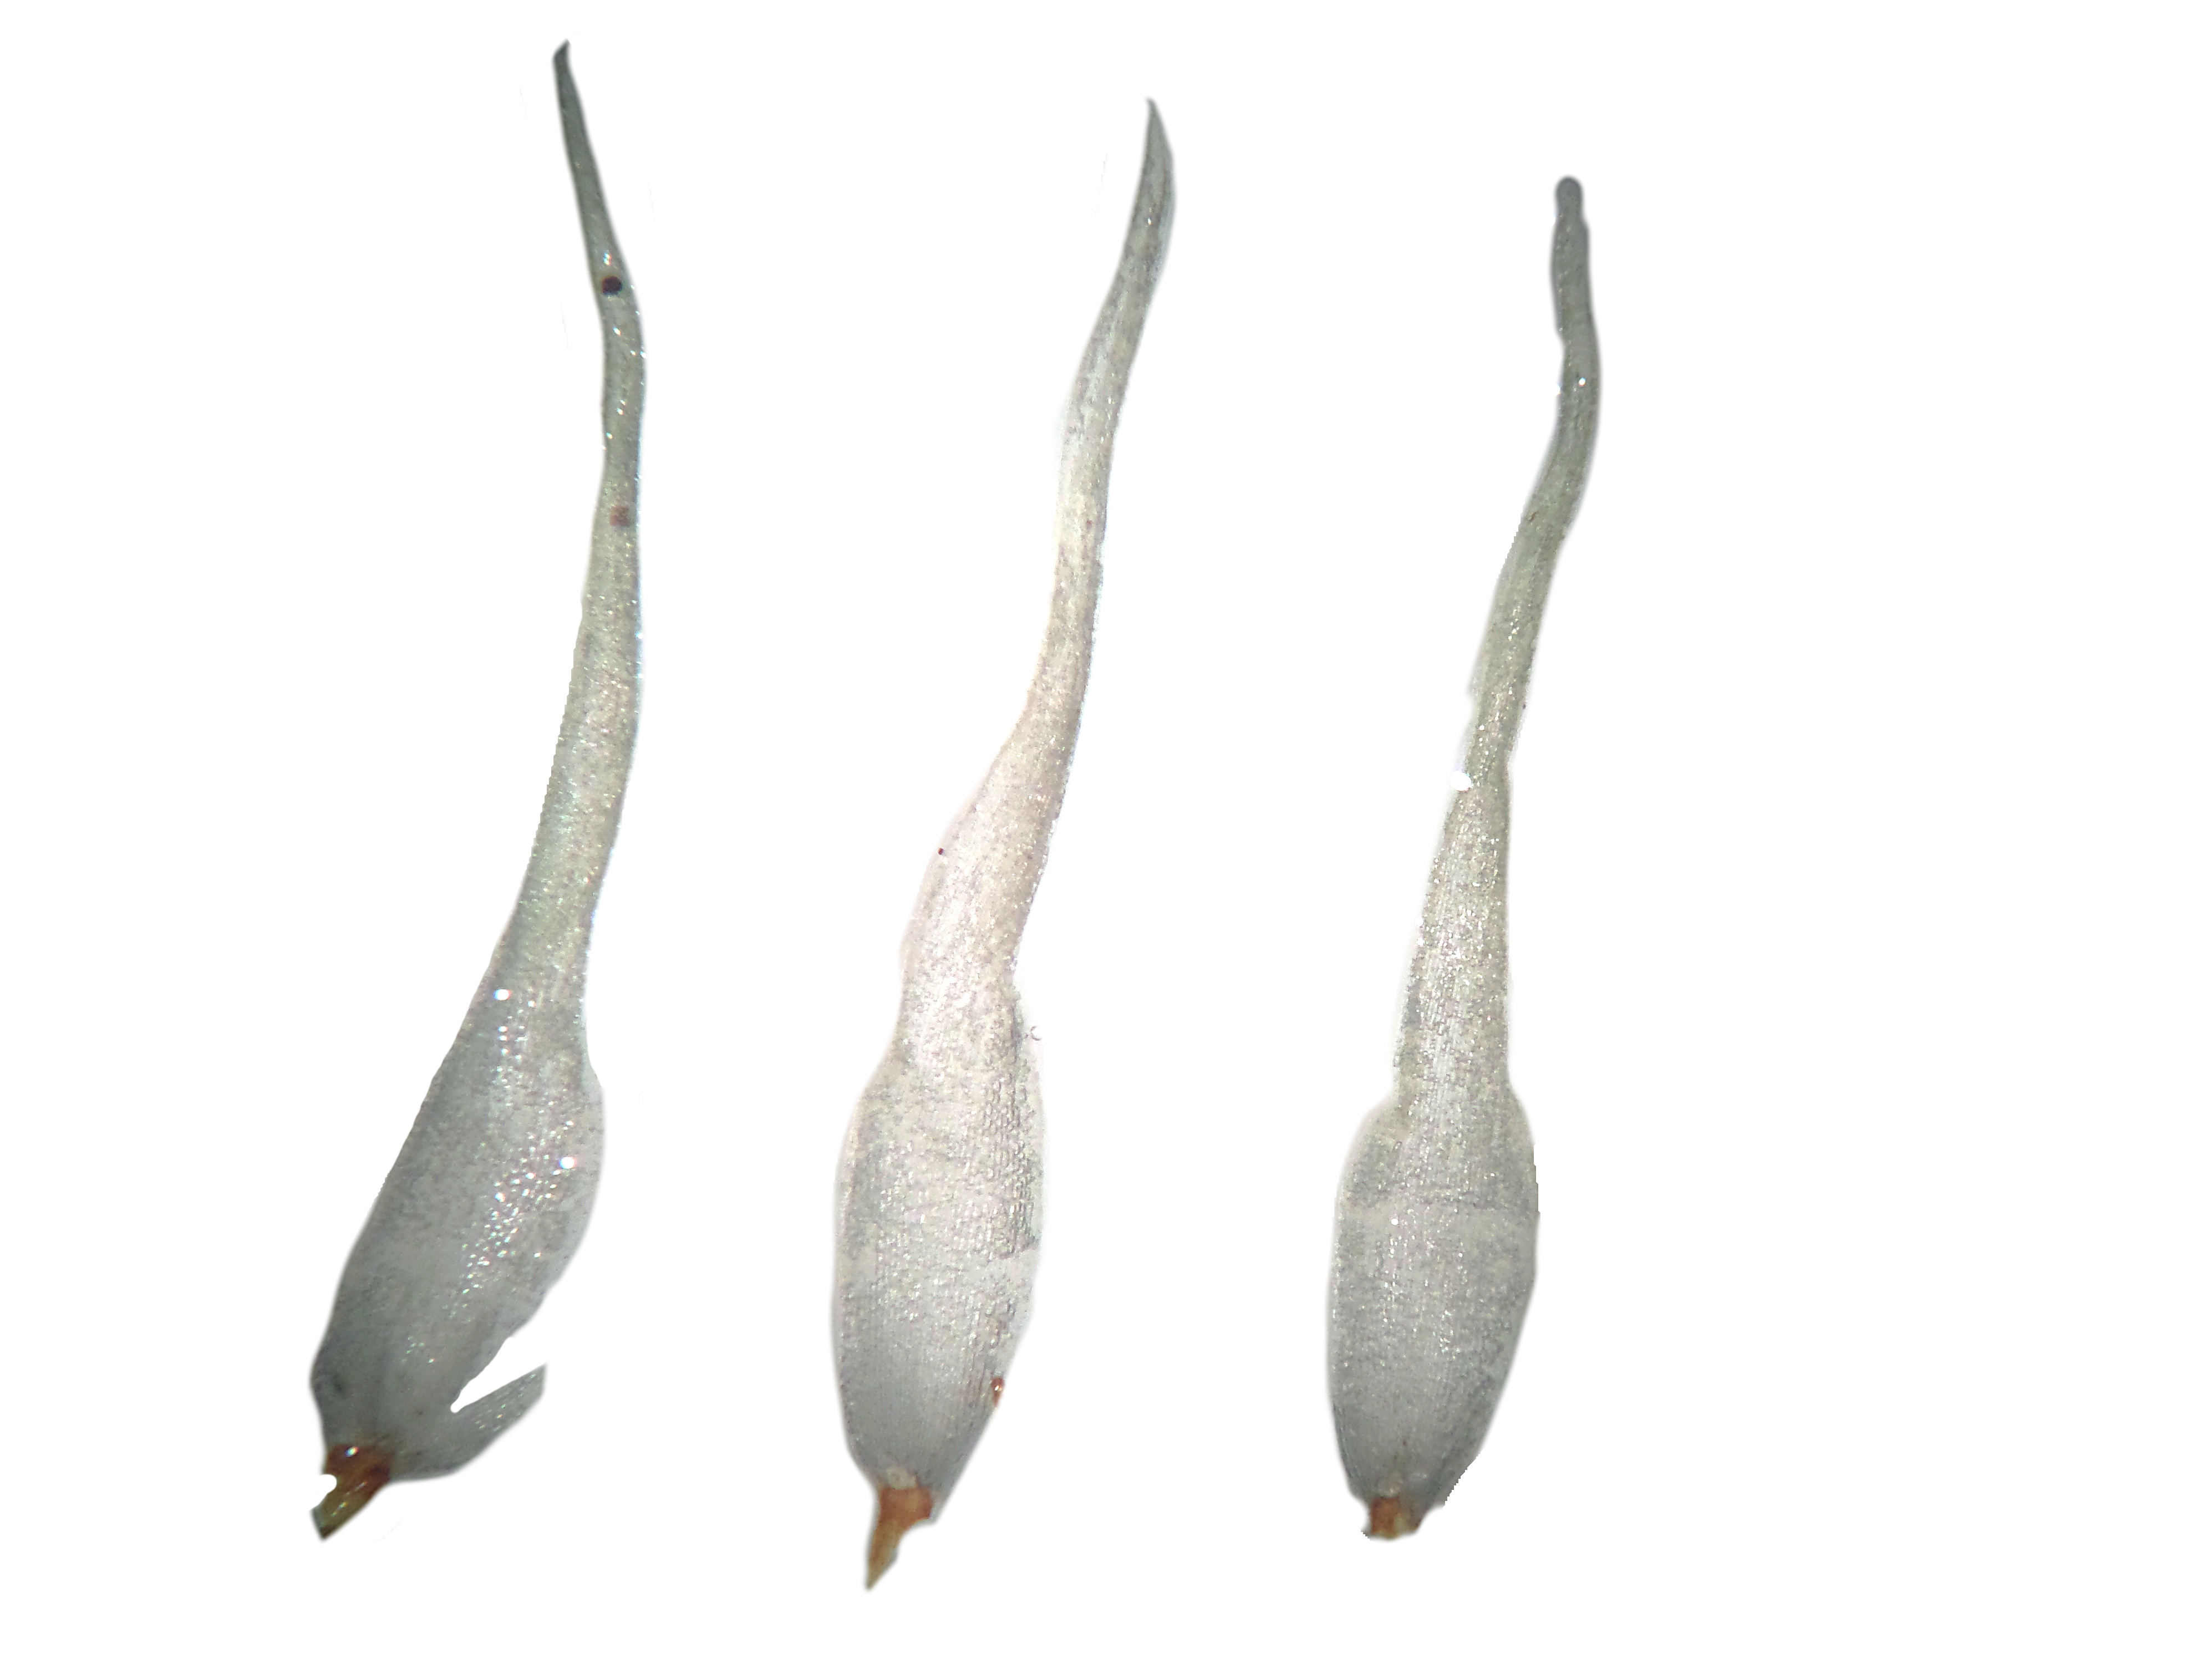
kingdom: Plantae
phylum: Bryophyta
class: Bryopsida
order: Dicranales
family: Leucobryaceae
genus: Leucobryum
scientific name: Leucobryum perrotii
